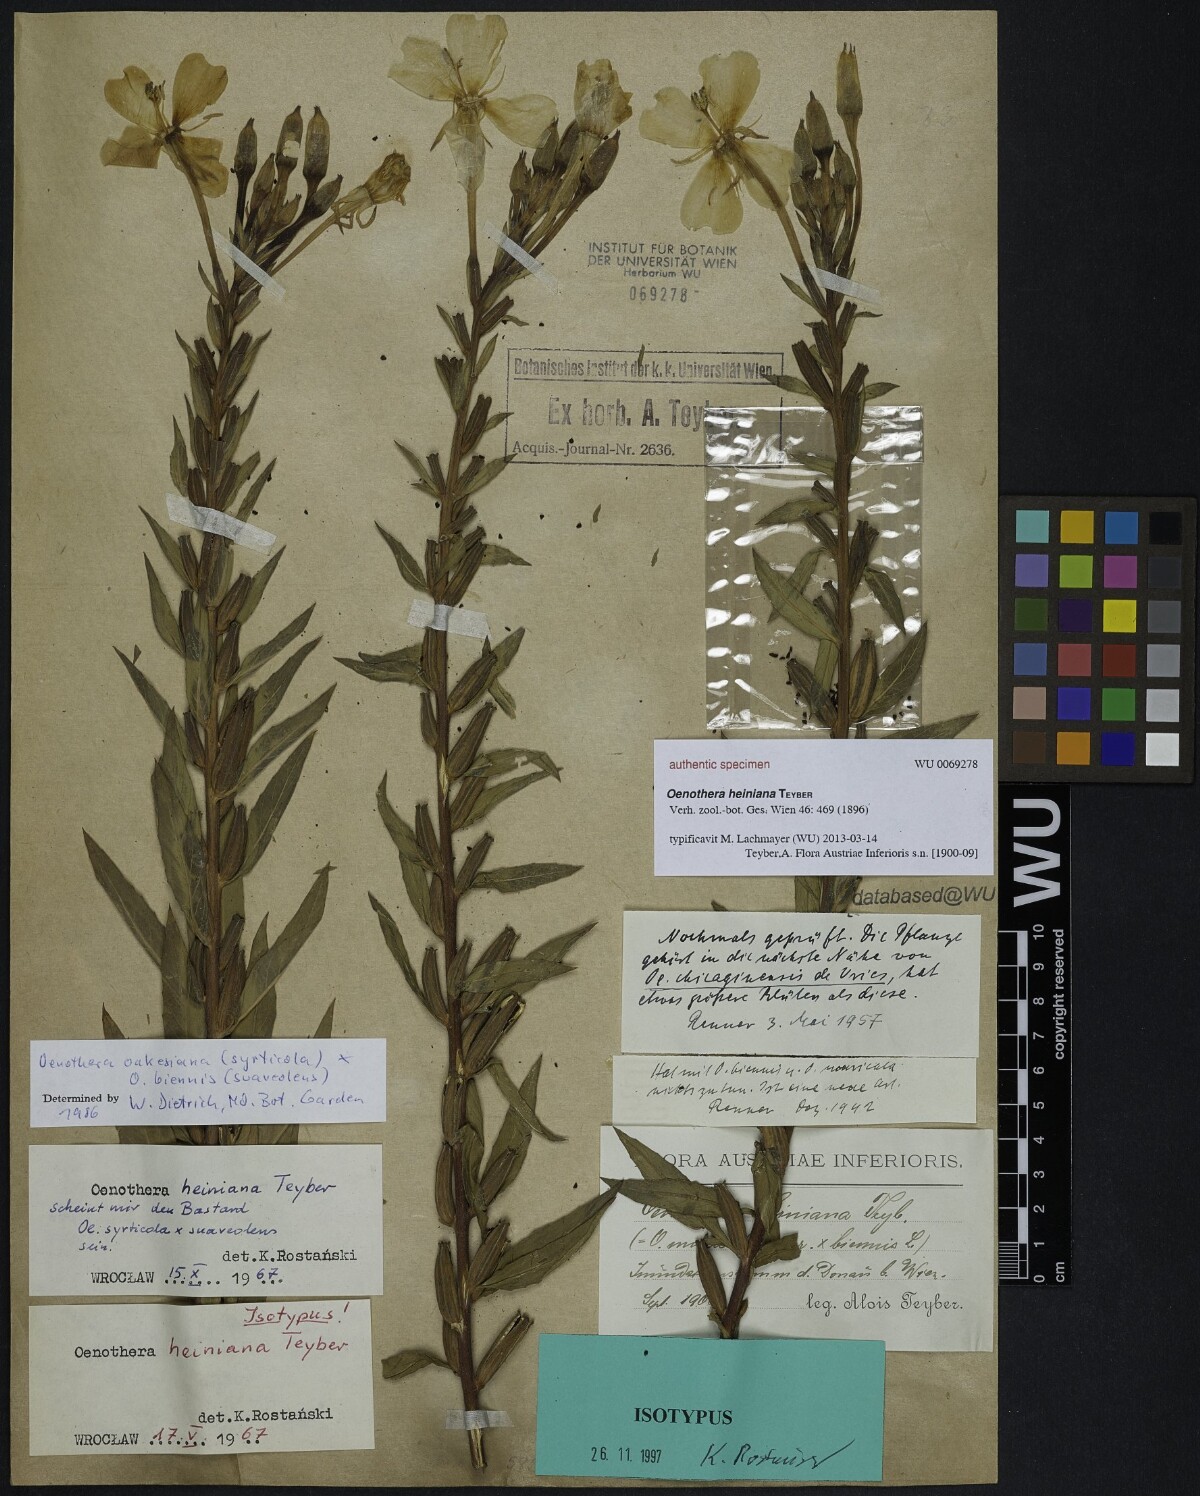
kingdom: Plantae
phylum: Tracheophyta
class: Magnoliopsida
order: Myrtales
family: Onagraceae
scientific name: Onagraceae
